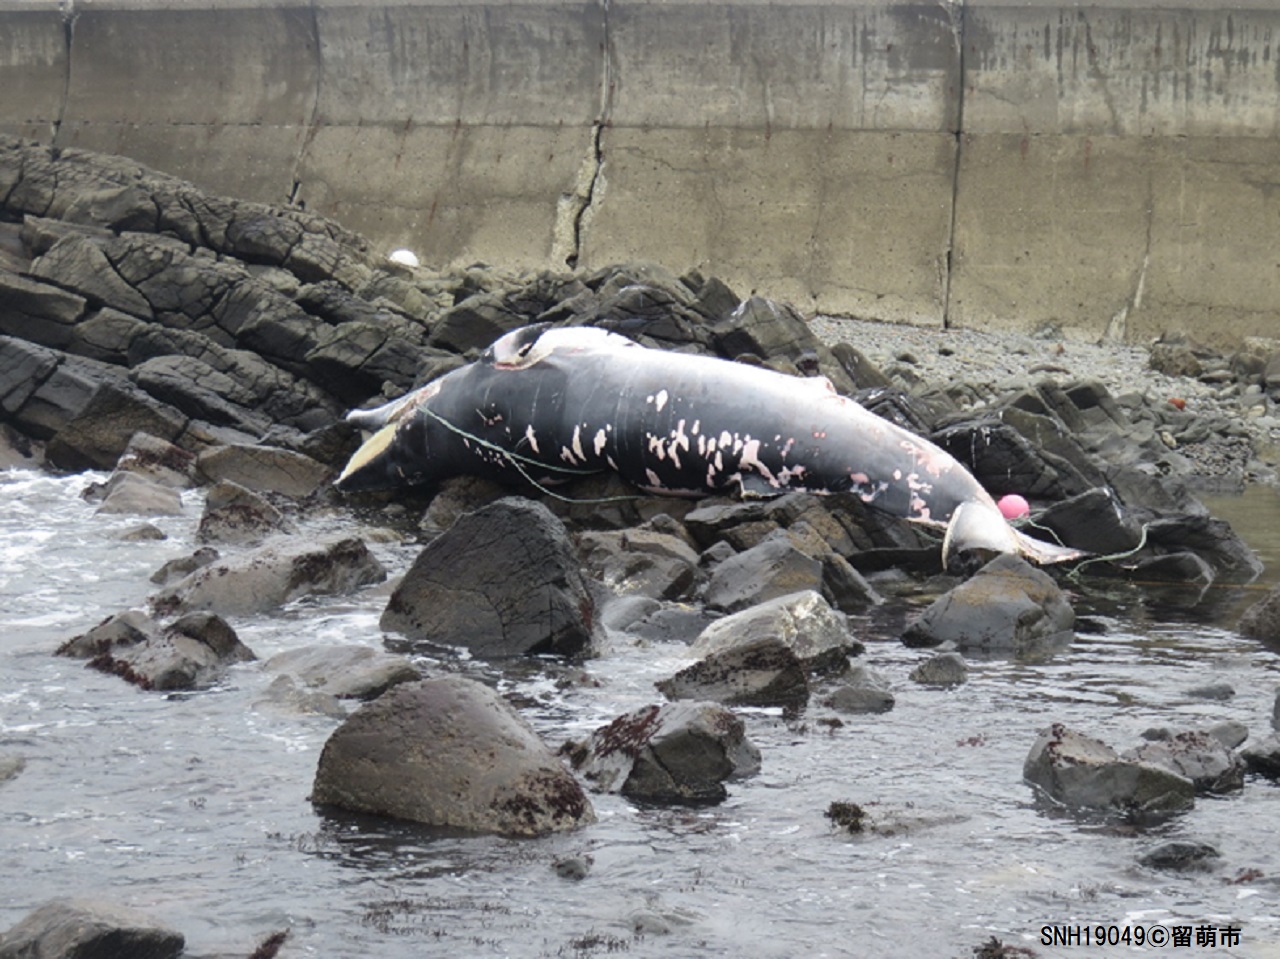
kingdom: Animalia
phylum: Chordata
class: Mammalia
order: Cetacea
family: Balaenopteridae
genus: Balaenoptera
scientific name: Balaenoptera acutorostrata
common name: Minke whale
